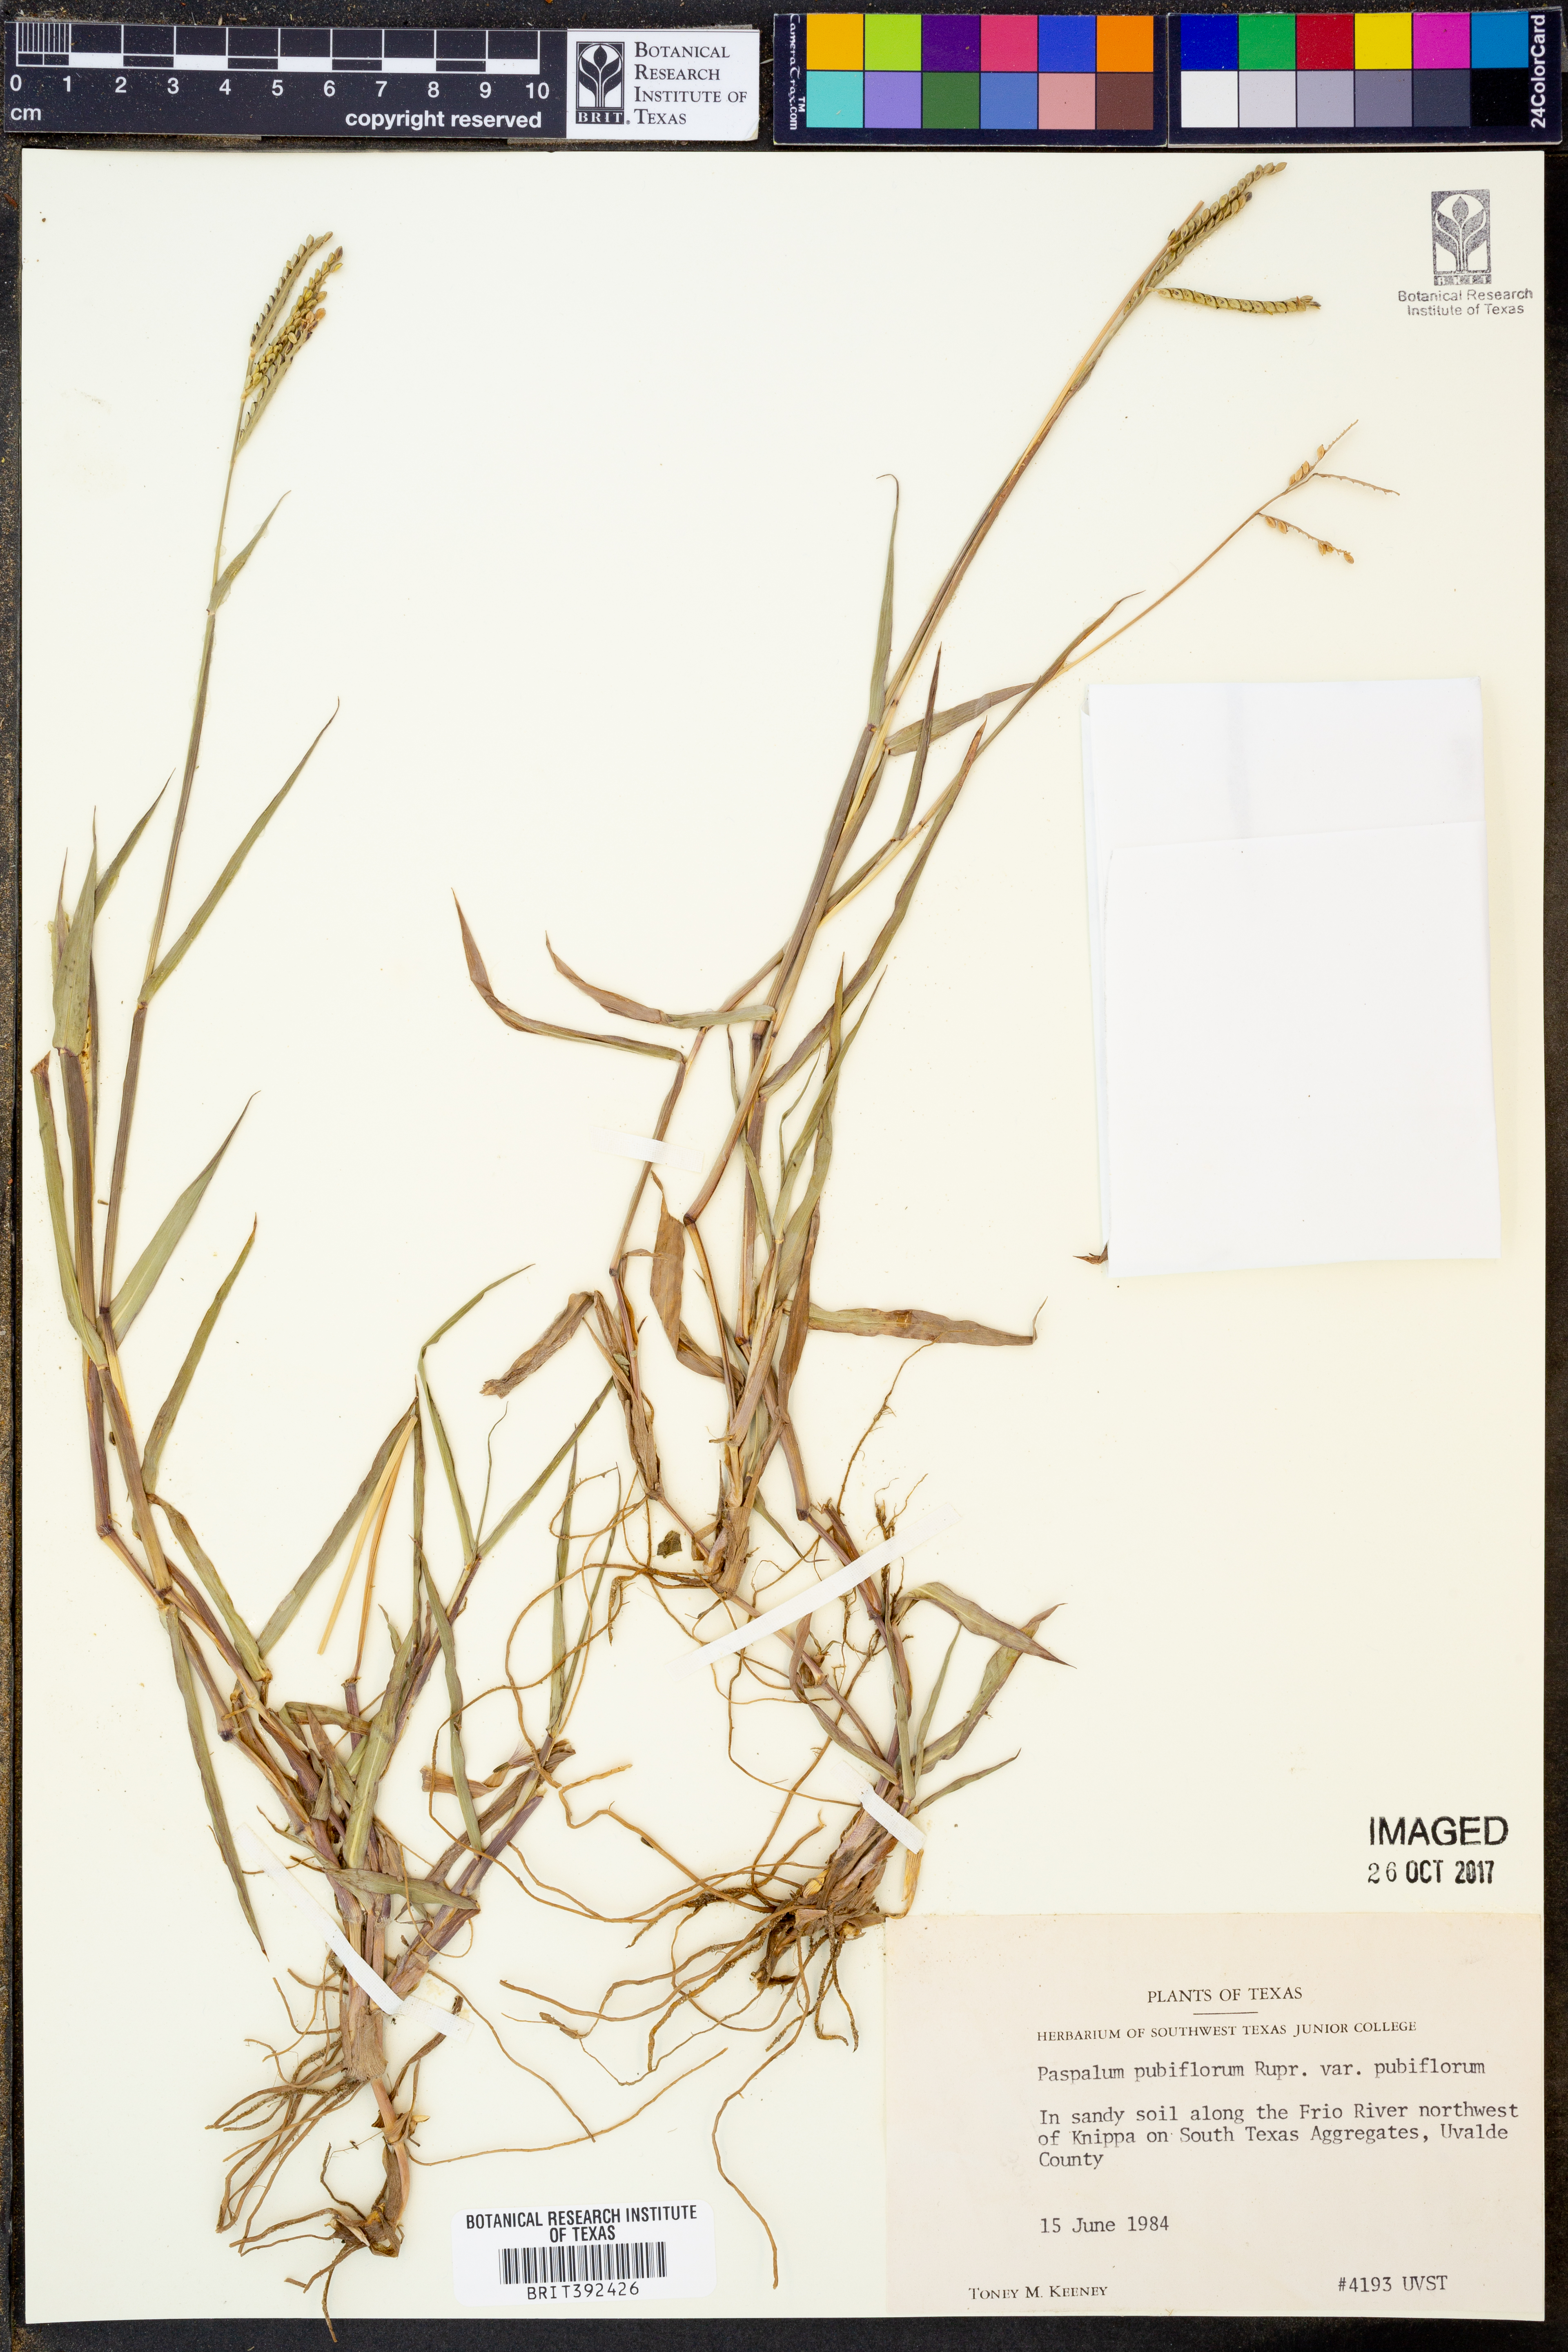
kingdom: Plantae
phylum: Tracheophyta
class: Liliopsida
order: Poales
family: Poaceae
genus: Paspalum
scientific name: Paspalum pubiflorum
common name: Hairy-seed paspalum
